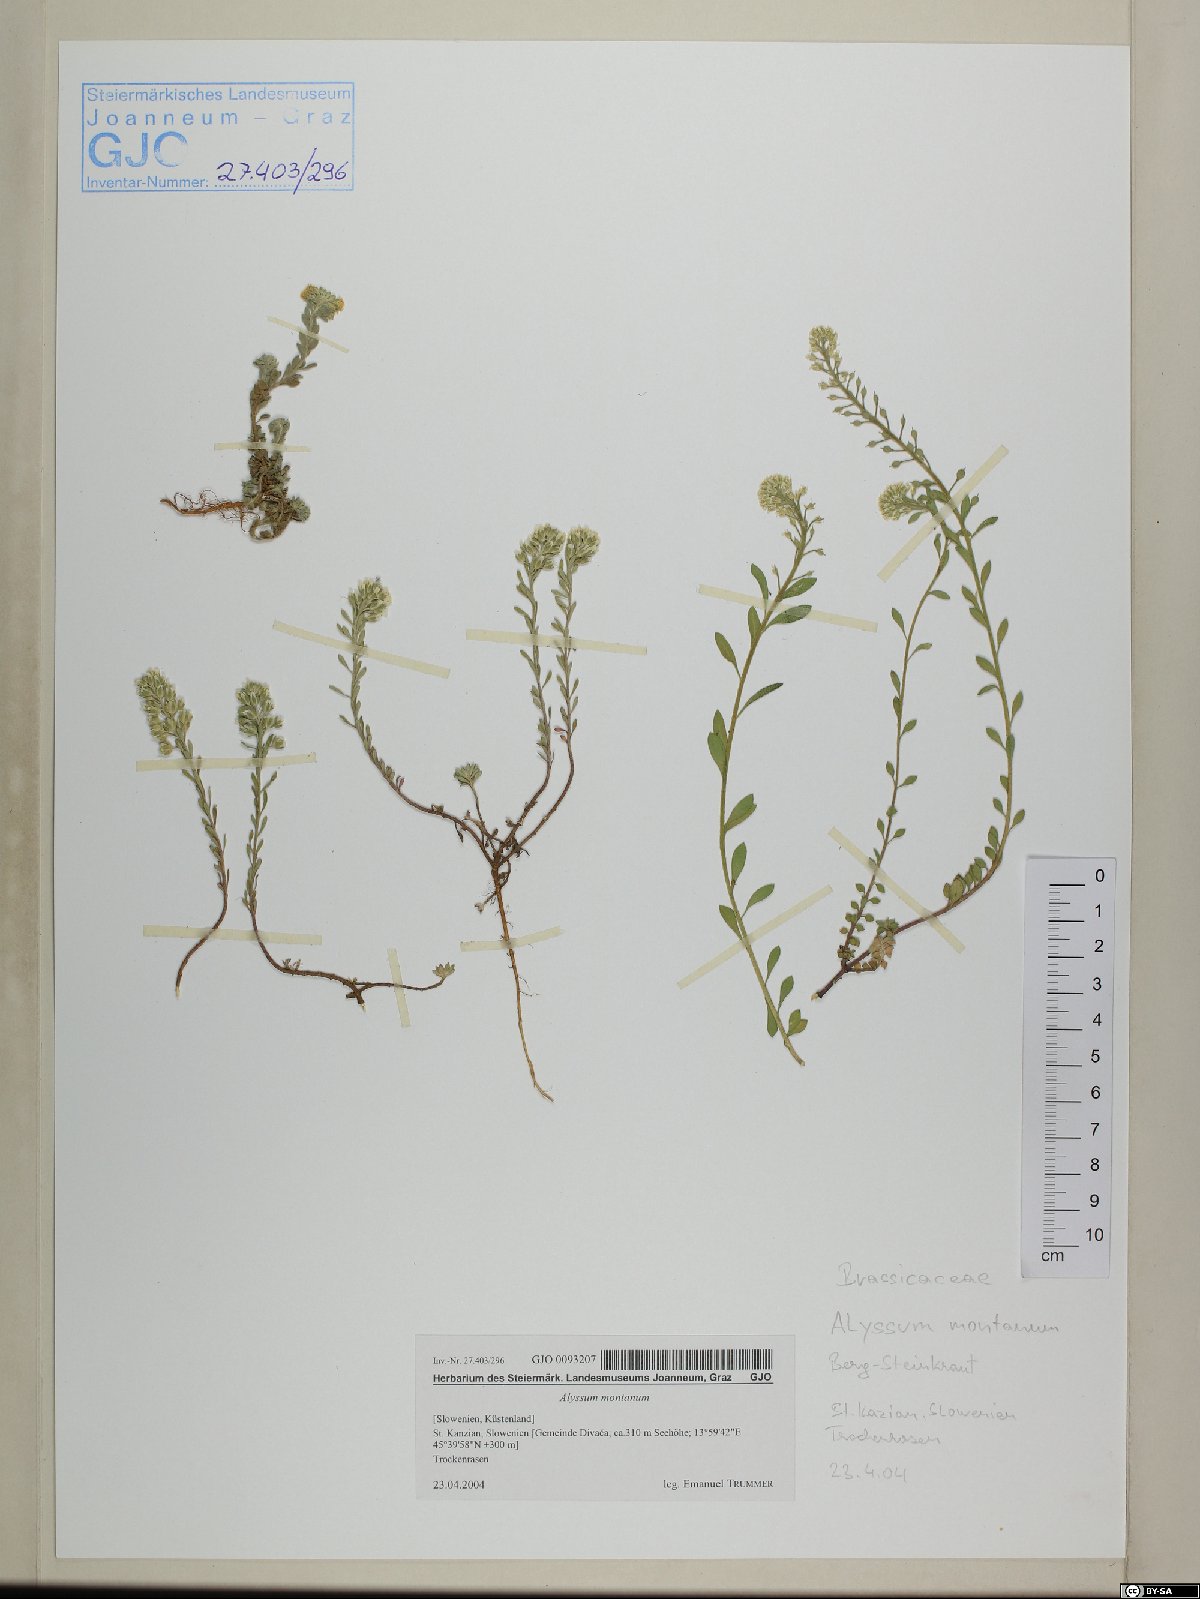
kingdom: Plantae
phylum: Tracheophyta
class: Magnoliopsida
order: Brassicales
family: Brassicaceae
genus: Alyssum
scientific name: Alyssum montanum
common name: Mountain alison
